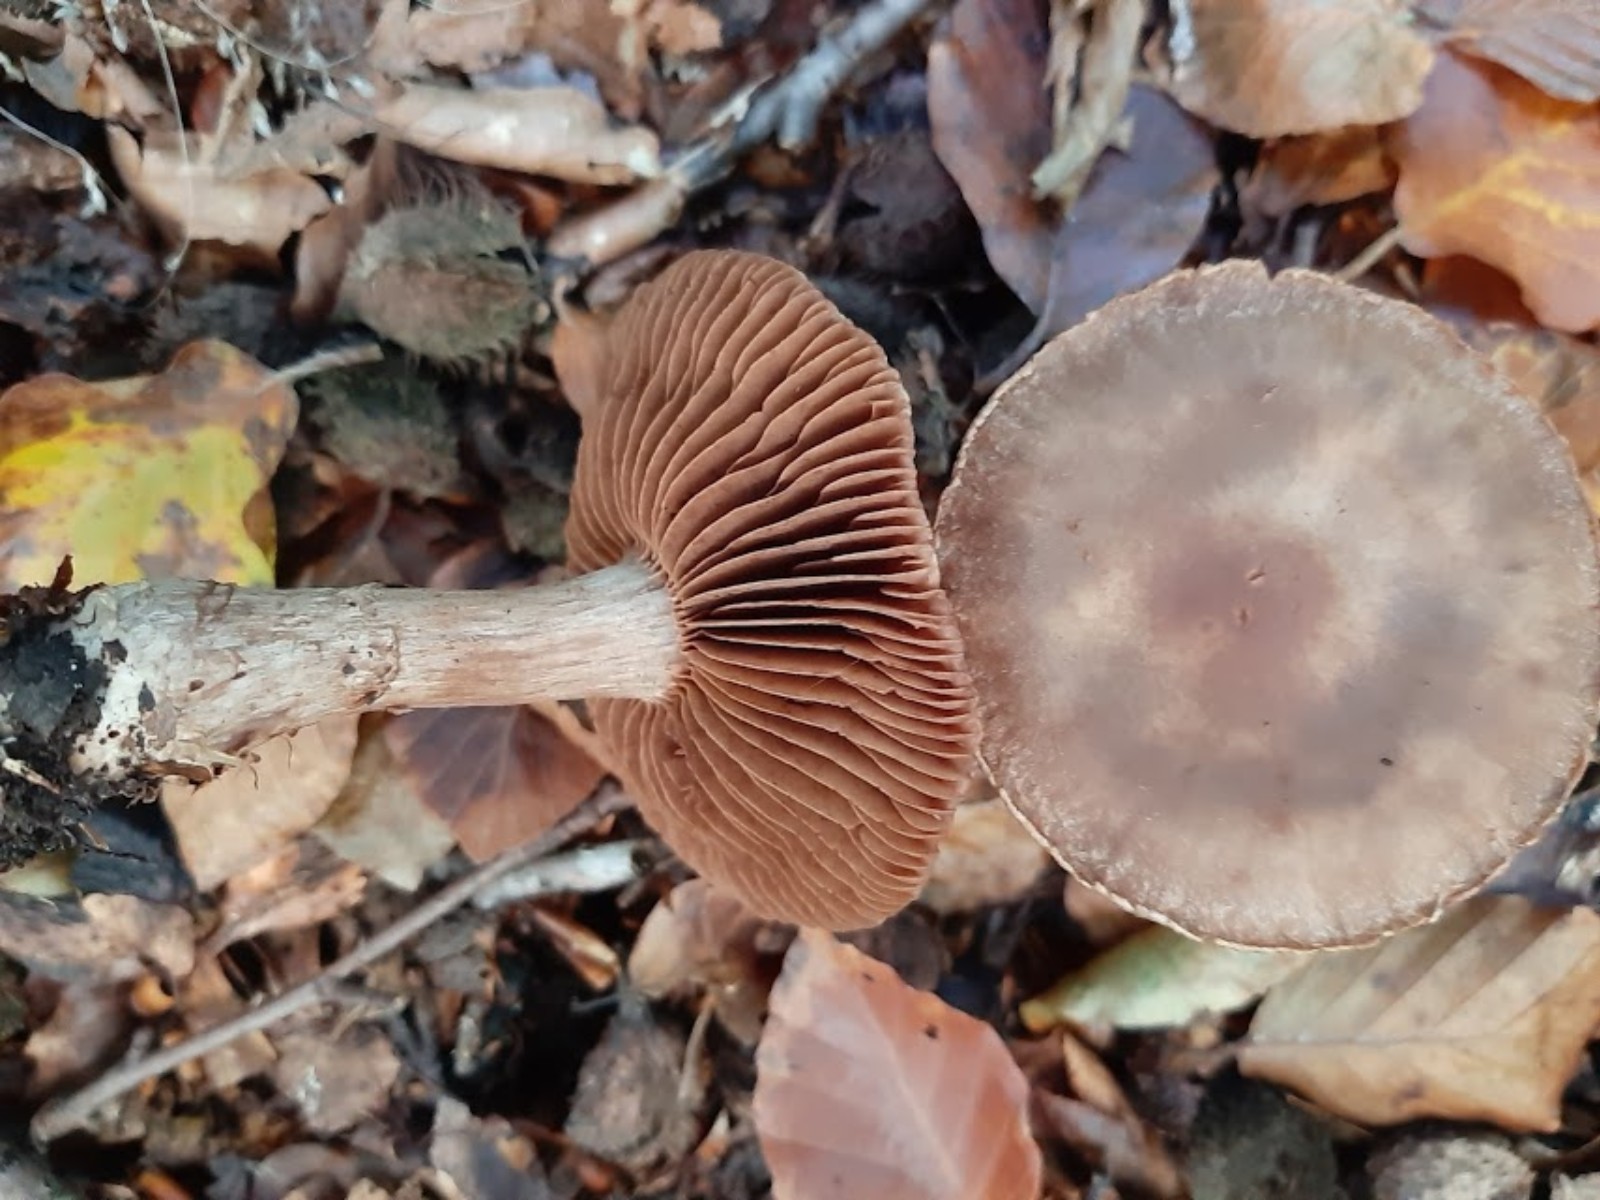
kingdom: Fungi
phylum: Basidiomycota
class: Agaricomycetes
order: Agaricales
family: Cortinariaceae
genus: Cortinarius
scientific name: Cortinarius torvus
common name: champignonagtig slørhat
